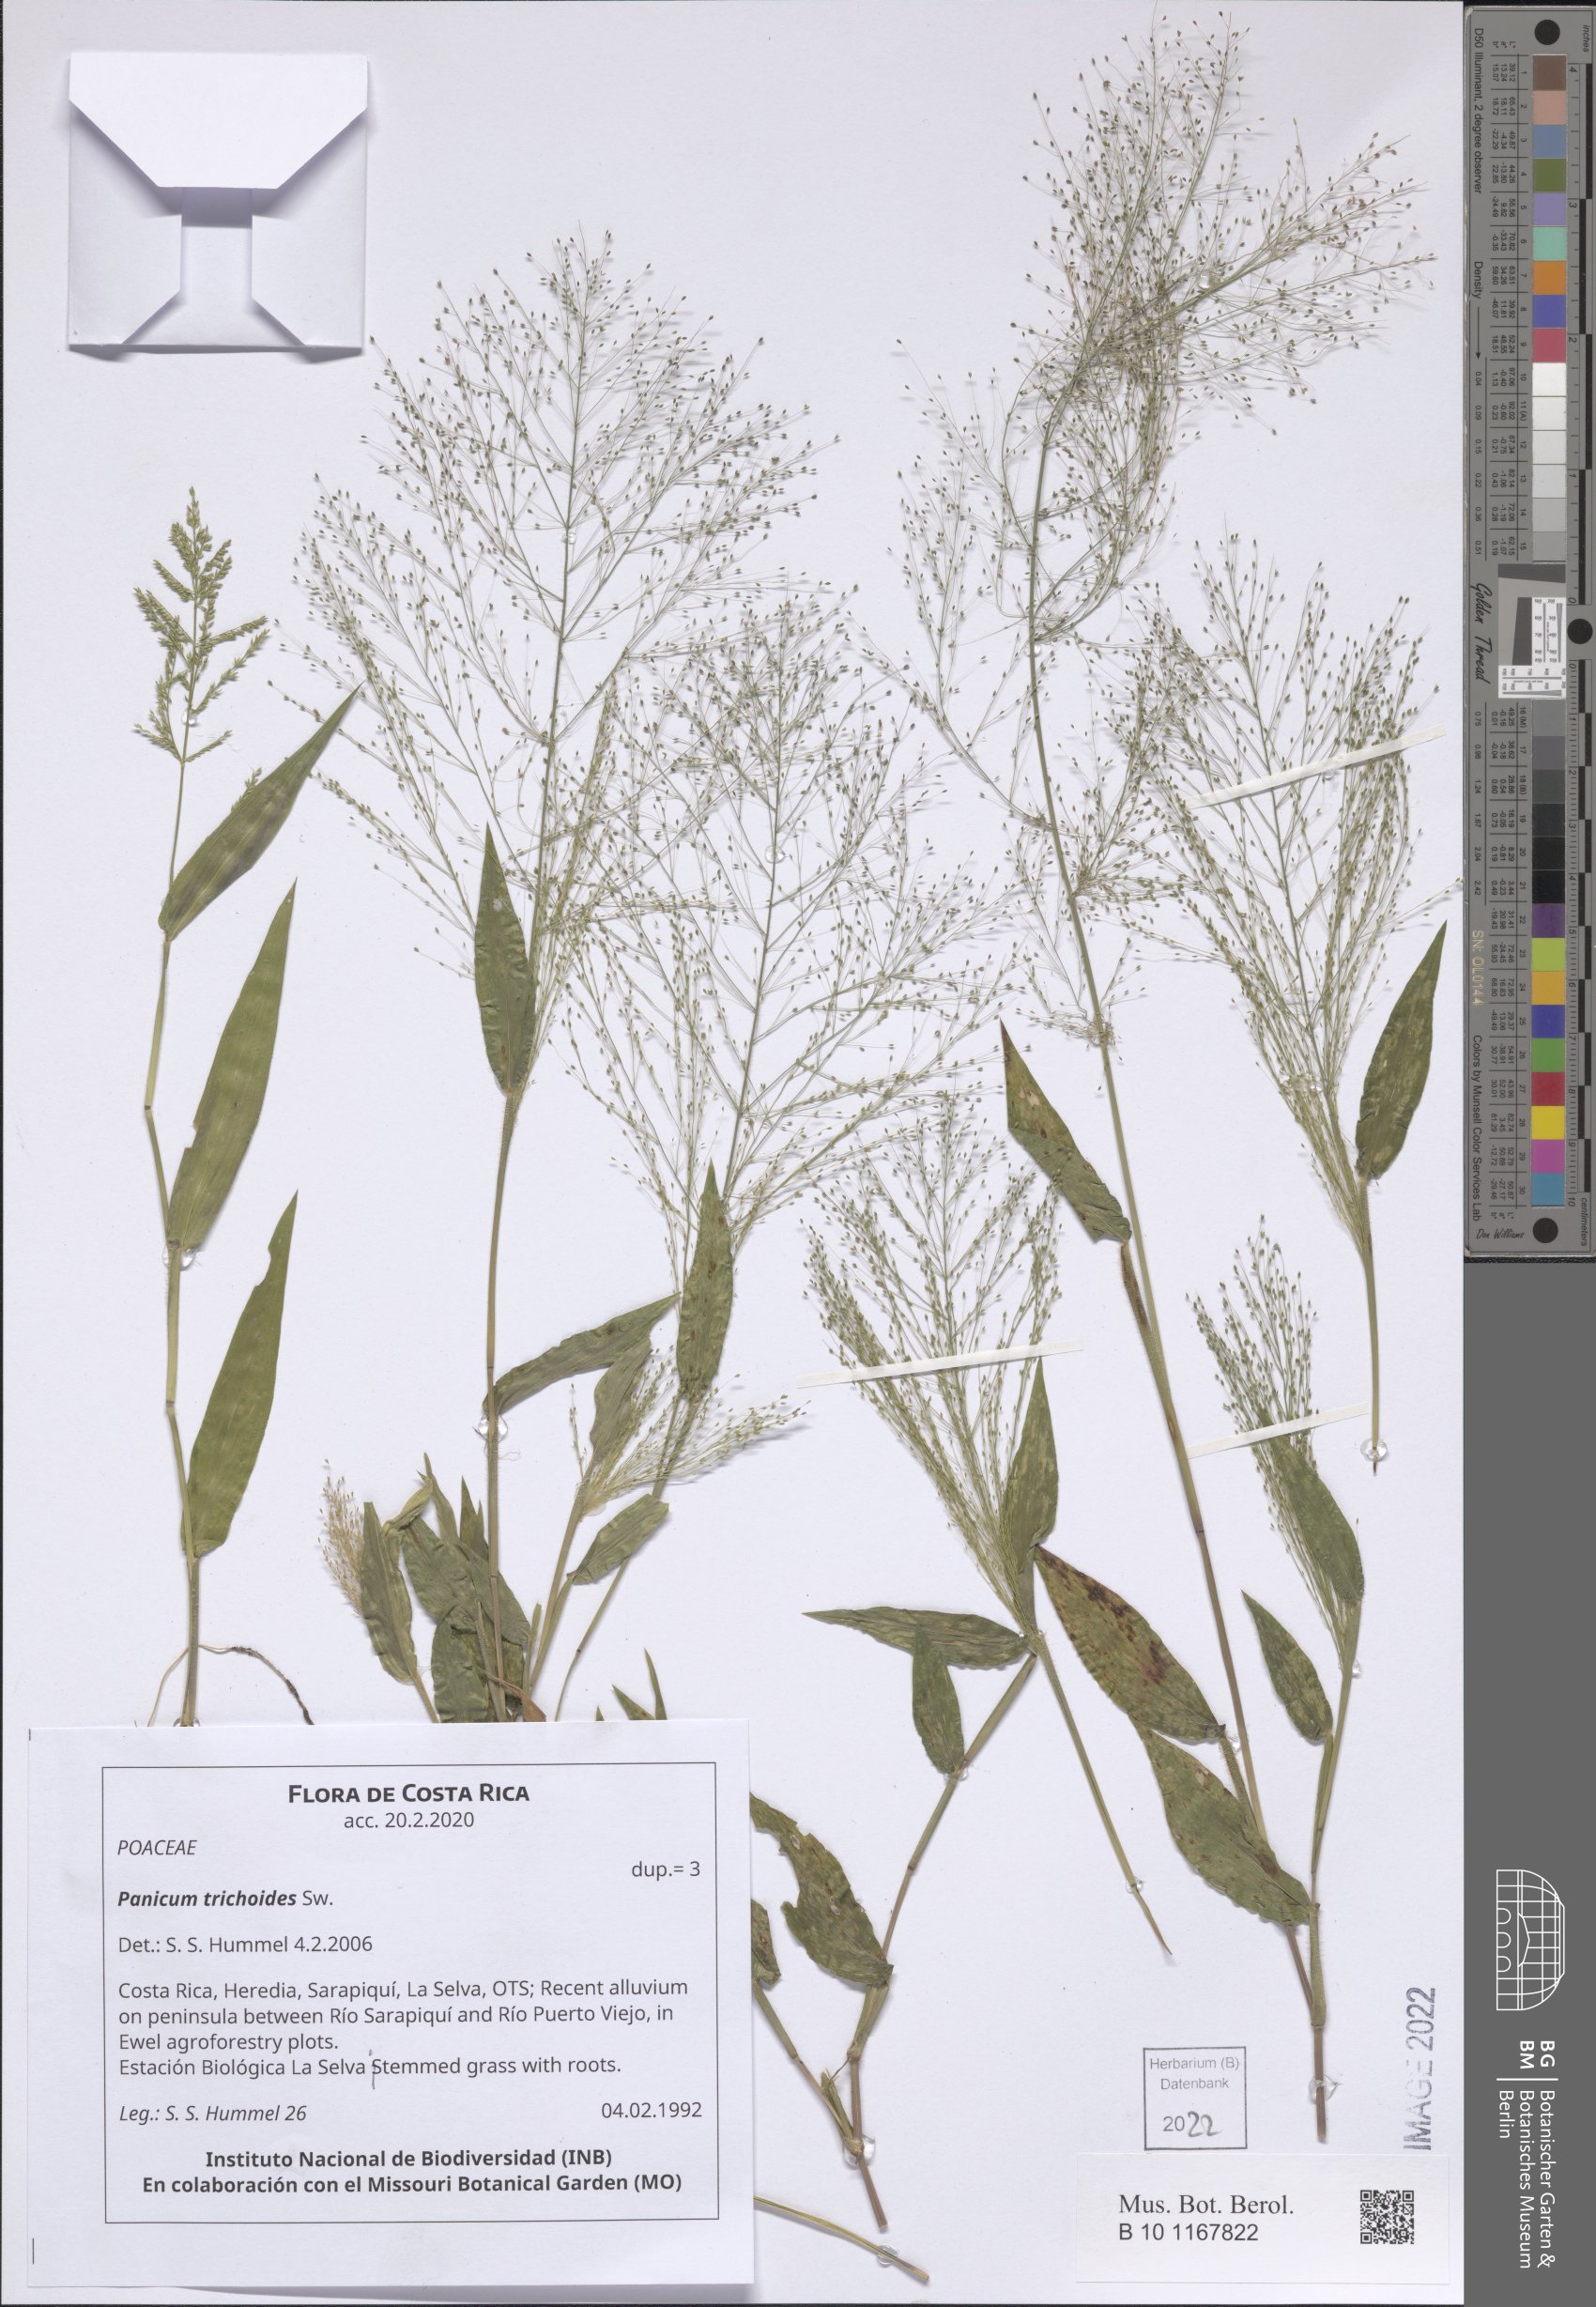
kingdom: Plantae
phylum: Tracheophyta
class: Liliopsida
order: Poales
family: Poaceae
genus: Panicum
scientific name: Panicum trichoides
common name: Tickle grass
